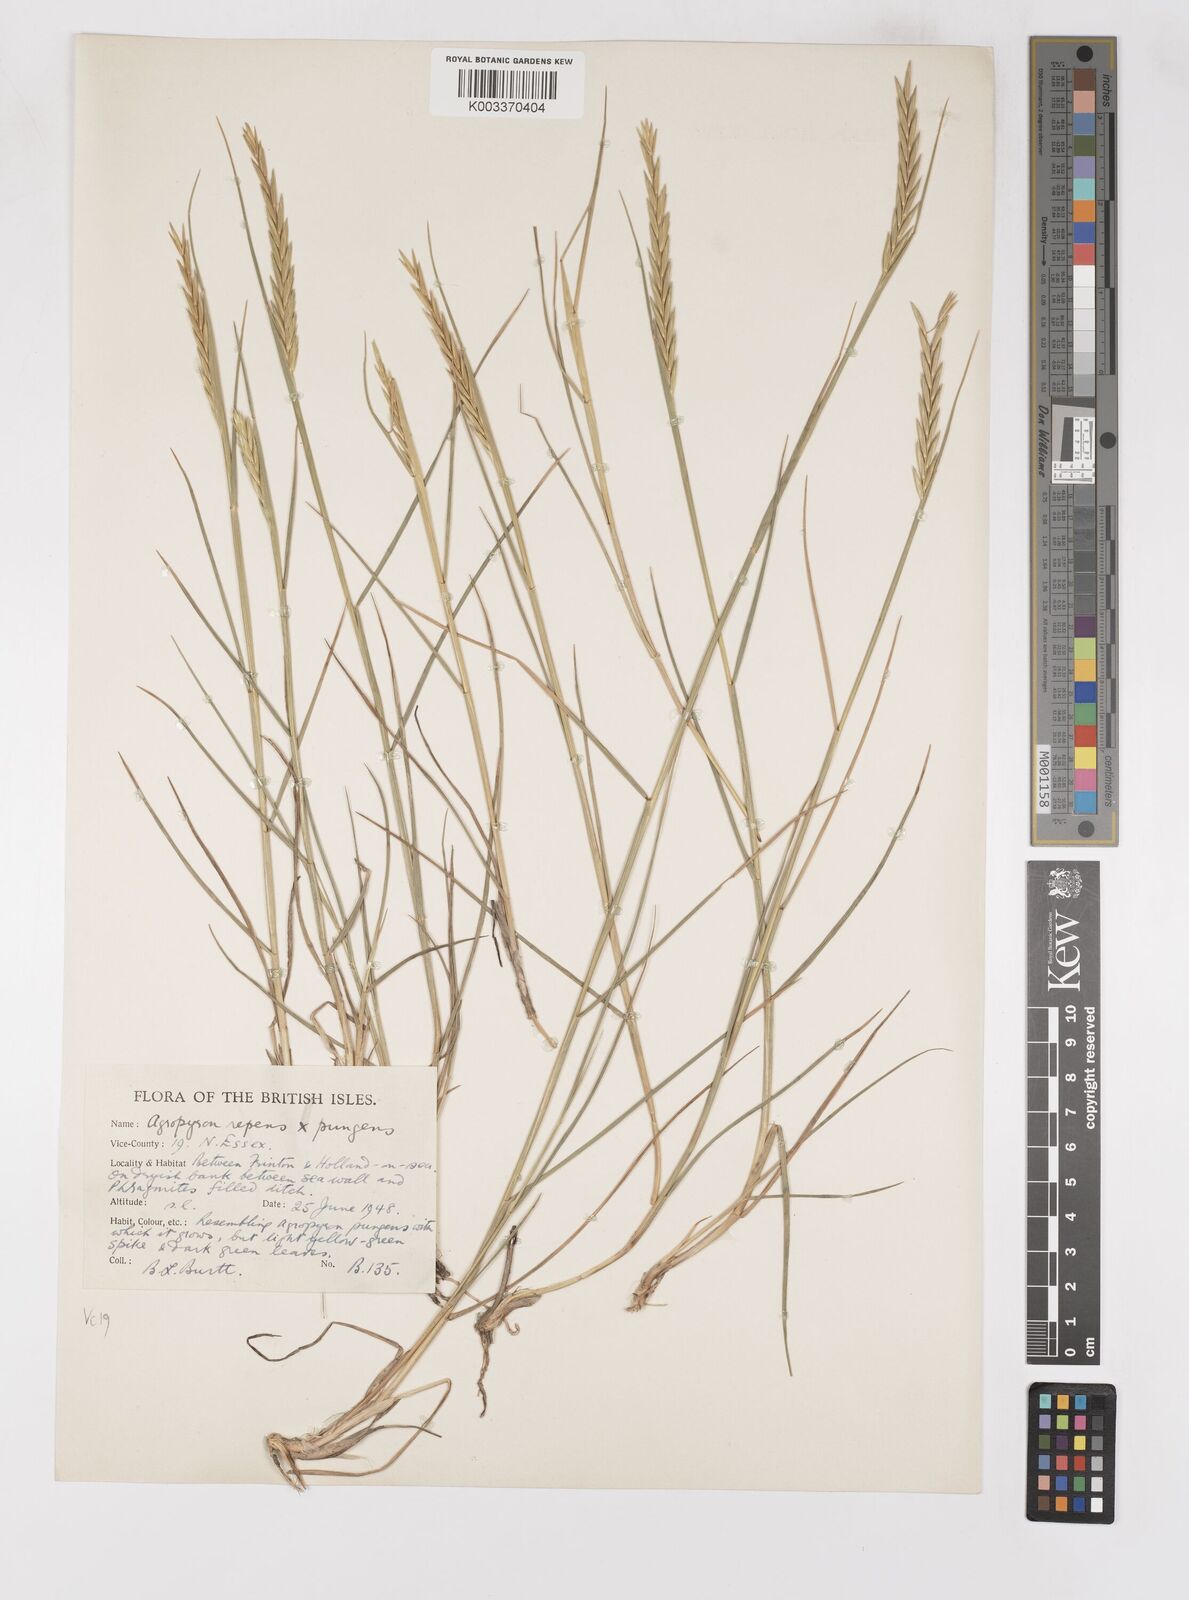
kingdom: Plantae
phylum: Tracheophyta
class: Liliopsida
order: Poales
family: Poaceae
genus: Elymus
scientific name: Elymus oliveri
